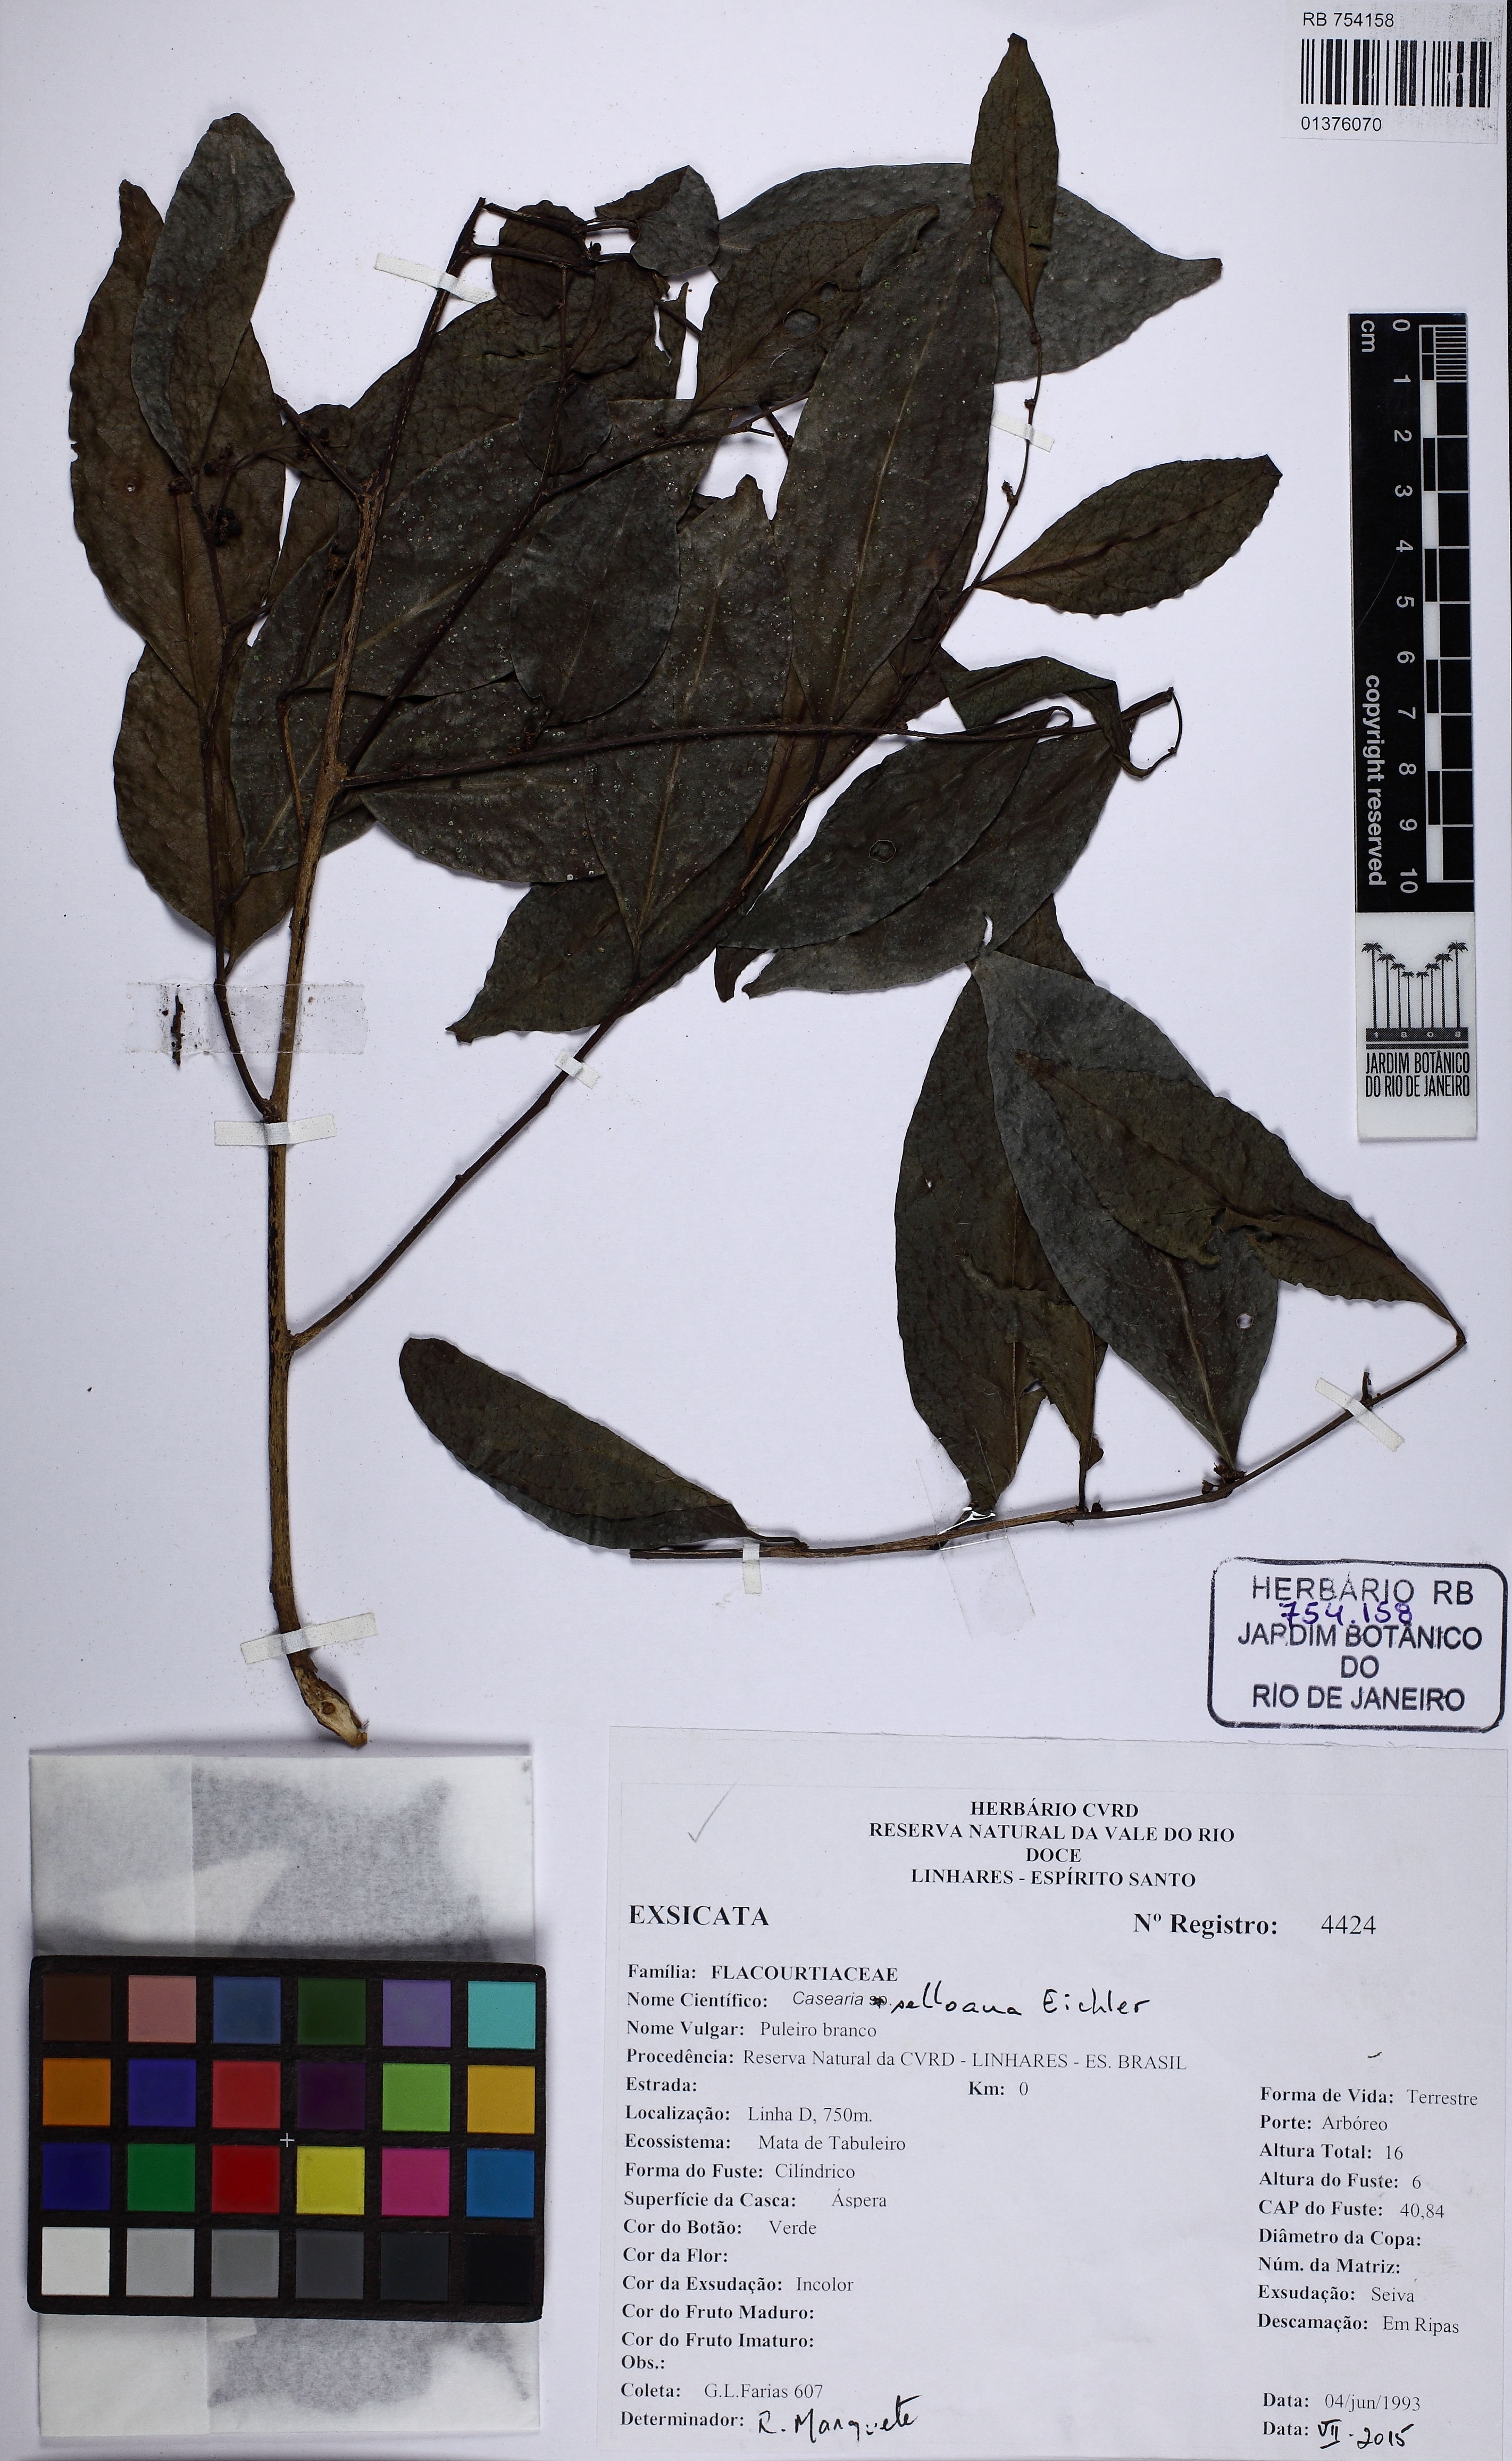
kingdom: Plantae
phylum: Tracheophyta
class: Magnoliopsida
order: Malpighiales
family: Salicaceae
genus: Casearia
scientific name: Casearia selloana
